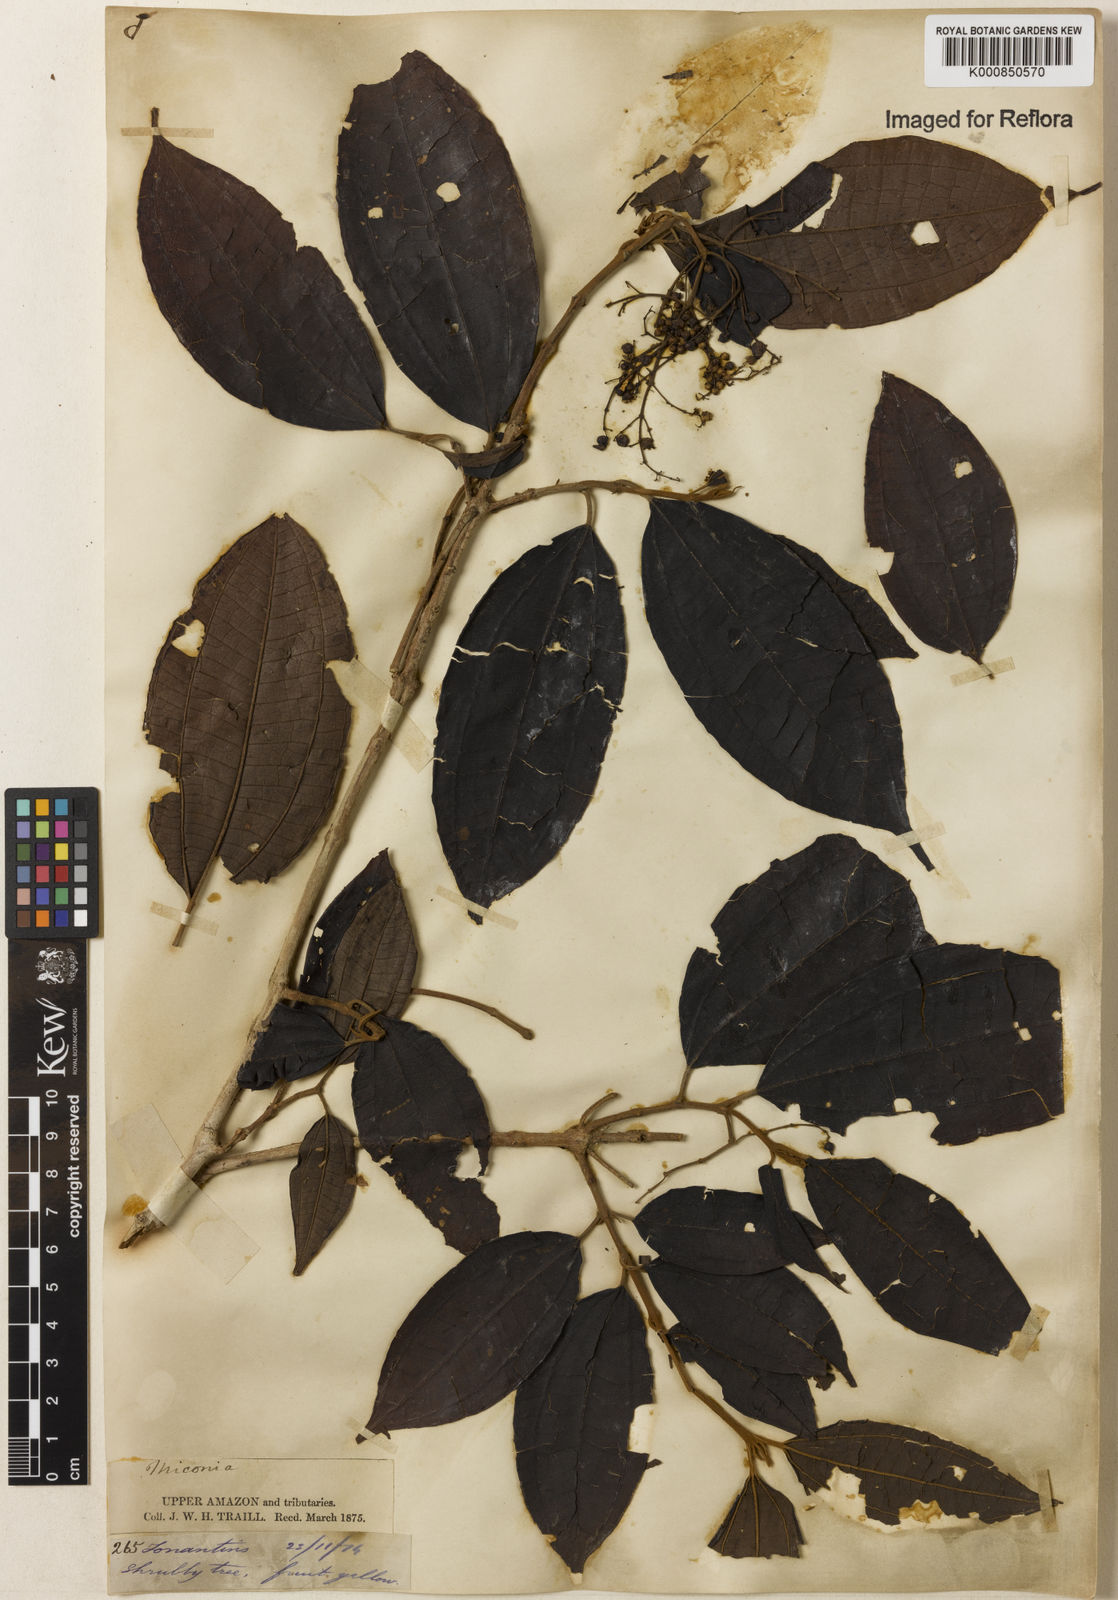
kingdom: Plantae
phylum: Tracheophyta
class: Magnoliopsida
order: Myrtales
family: Melastomataceae
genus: Miconia
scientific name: Miconia
